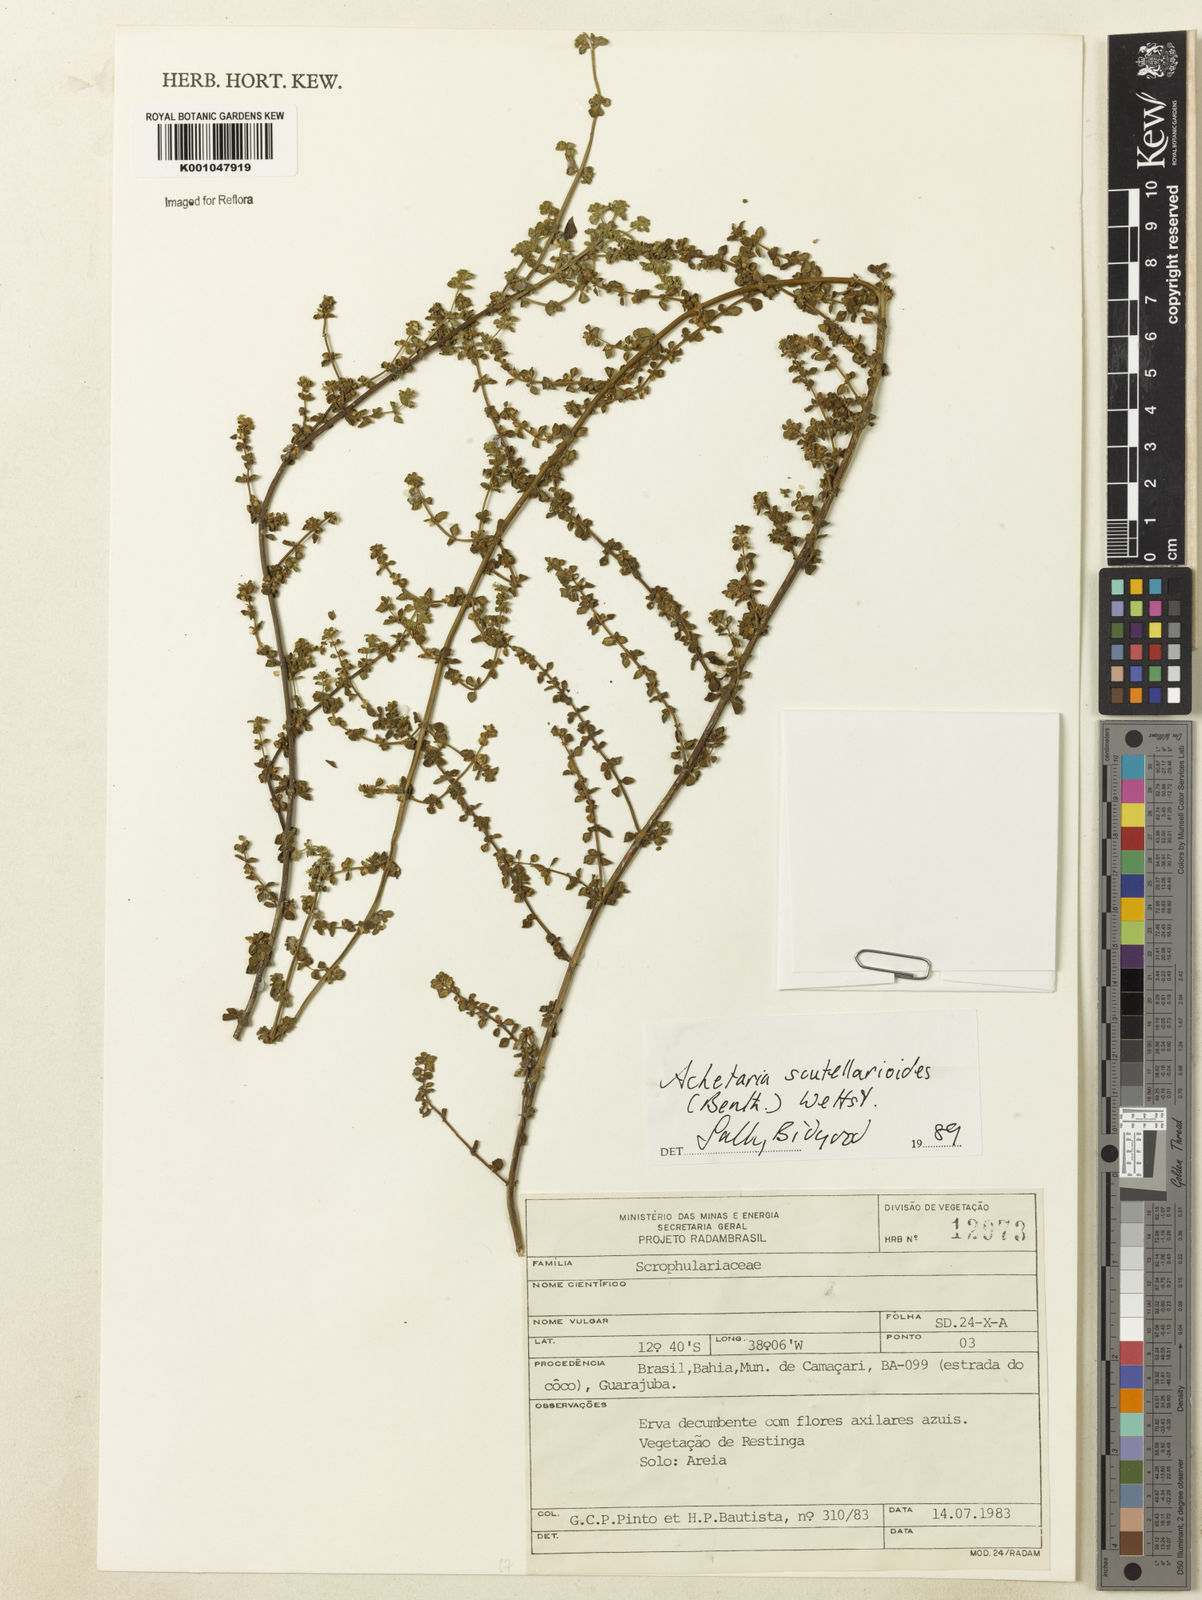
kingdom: Plantae
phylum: Tracheophyta
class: Magnoliopsida
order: Lamiales
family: Plantaginaceae
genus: Matourea
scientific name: Matourea scutellarioides
